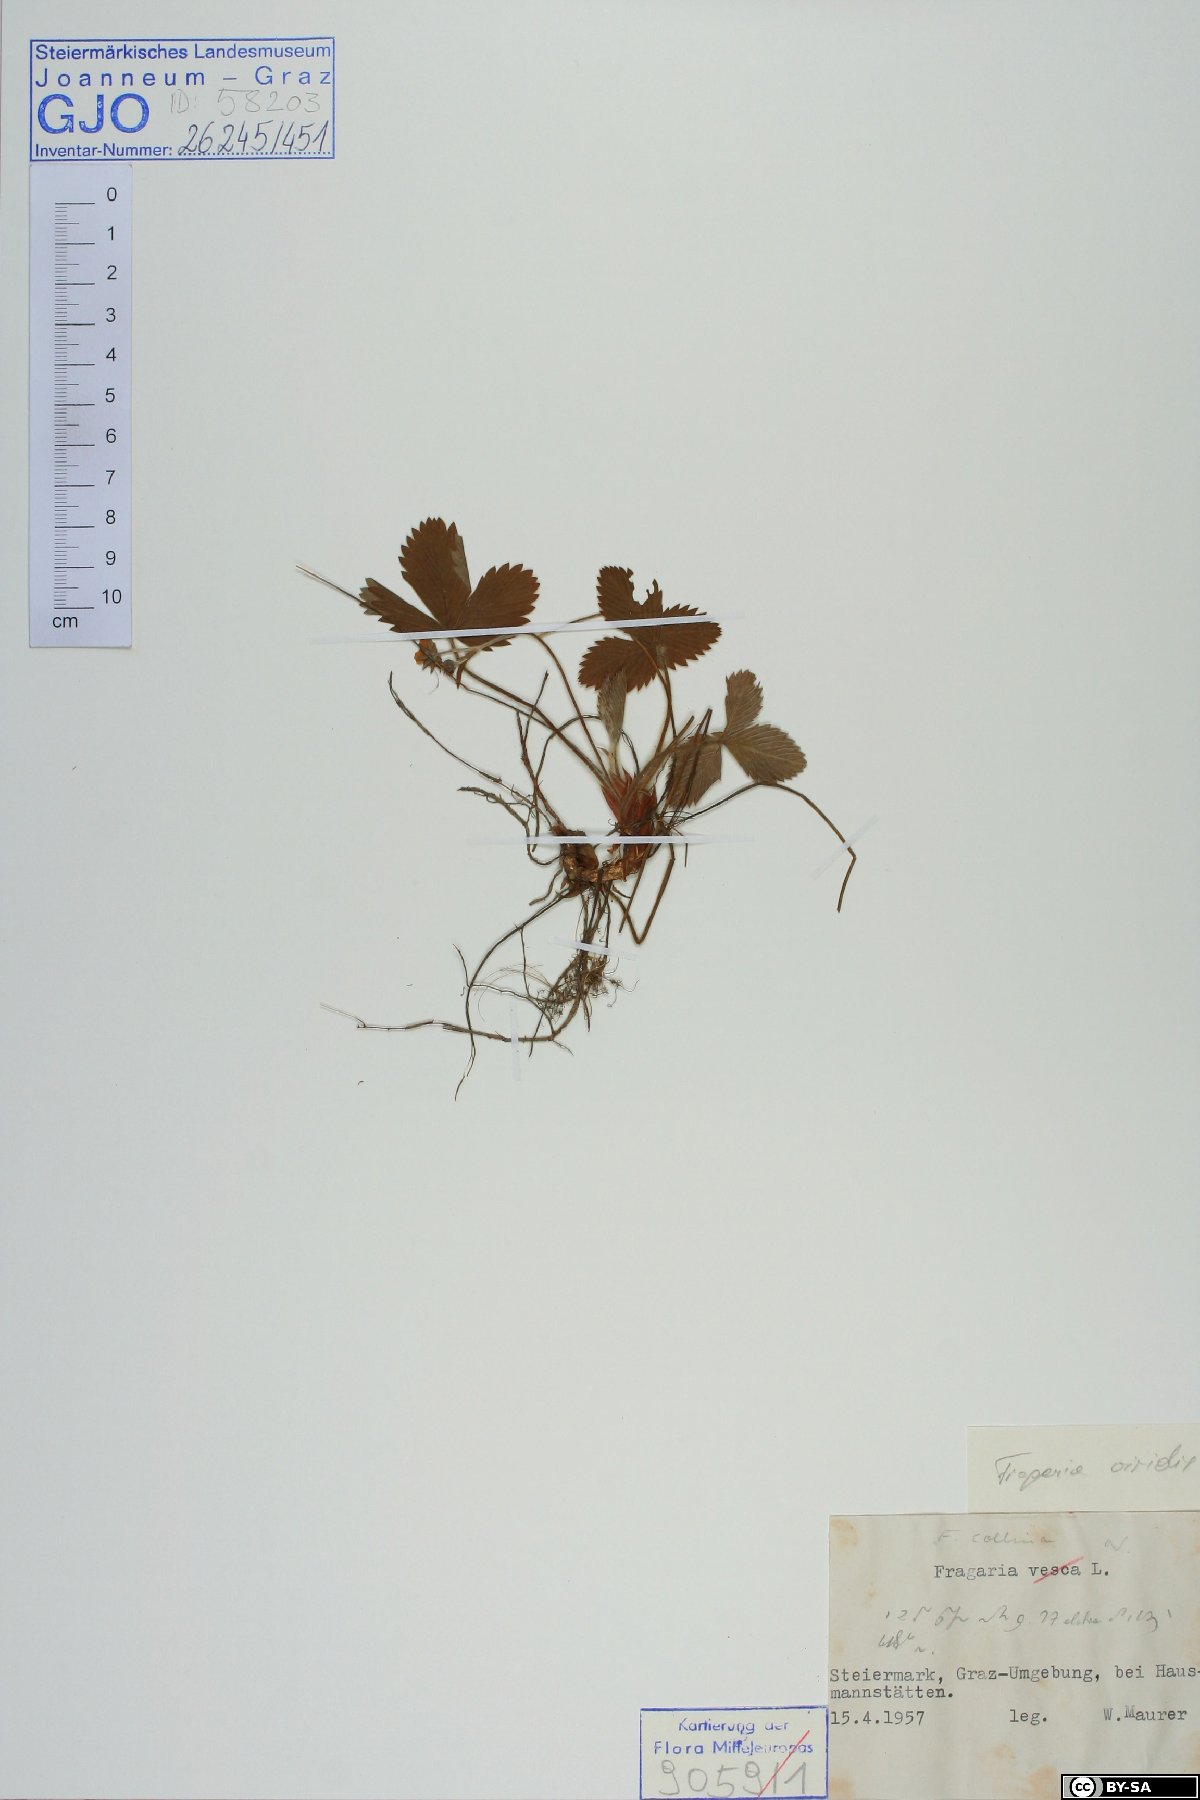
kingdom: Plantae
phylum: Tracheophyta
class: Magnoliopsida
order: Rosales
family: Rosaceae
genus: Fragaria
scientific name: Fragaria viridis
